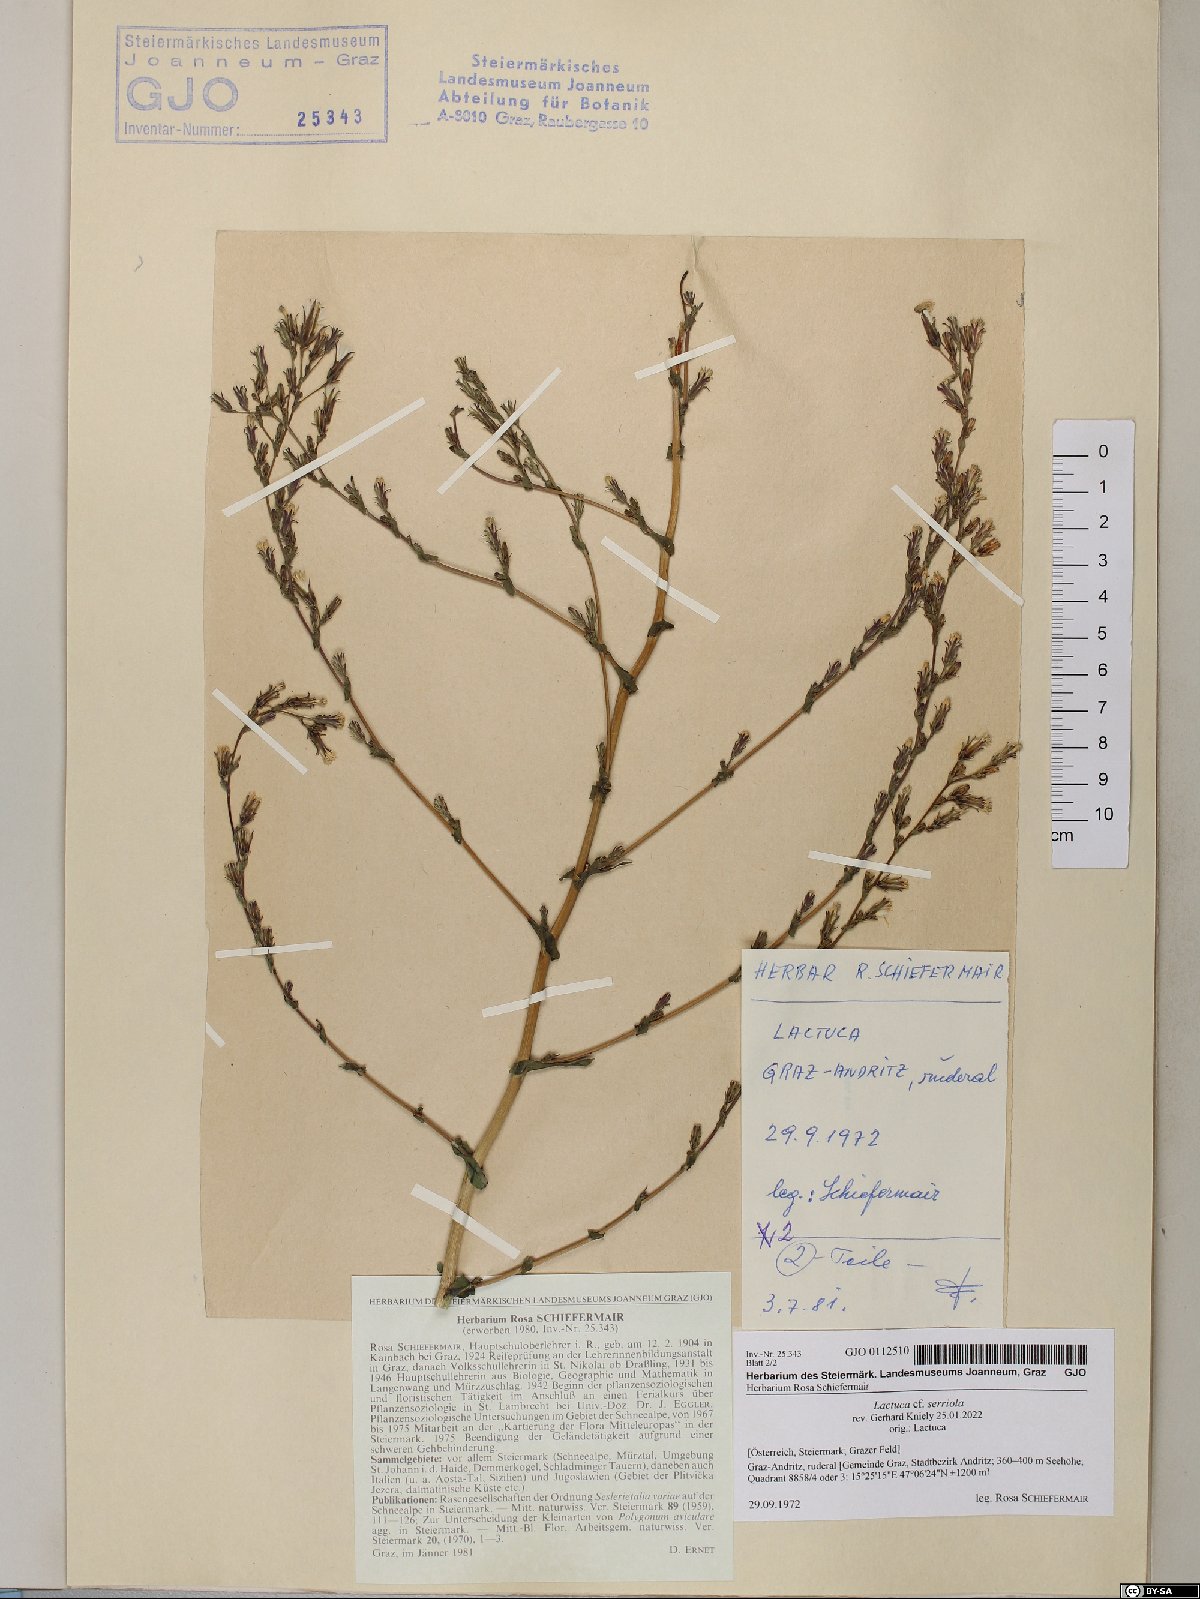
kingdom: Plantae
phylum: Tracheophyta
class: Magnoliopsida
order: Asterales
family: Asteraceae
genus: Lactuca
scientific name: Lactuca serriola
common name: Prickly lettuce
